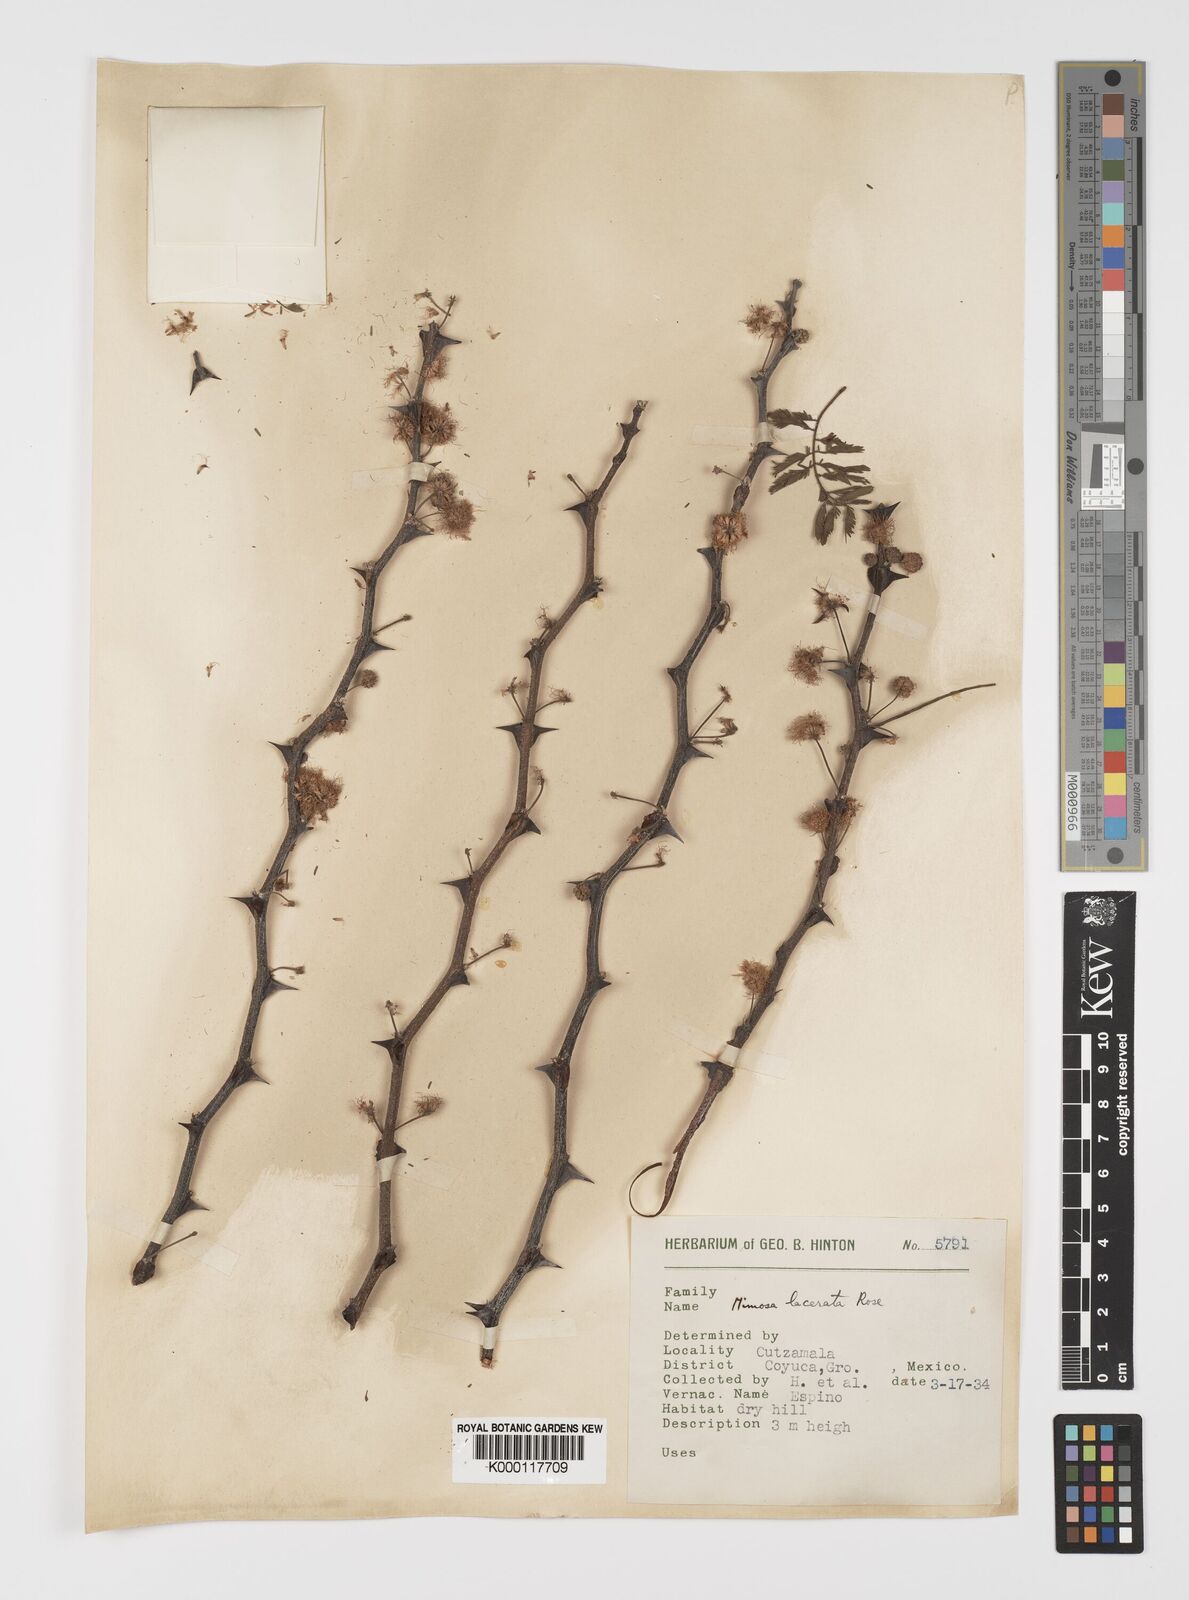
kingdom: Plantae
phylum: Tracheophyta
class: Magnoliopsida
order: Fabales
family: Fabaceae
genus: Mimosa
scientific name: Mimosa lacerata
